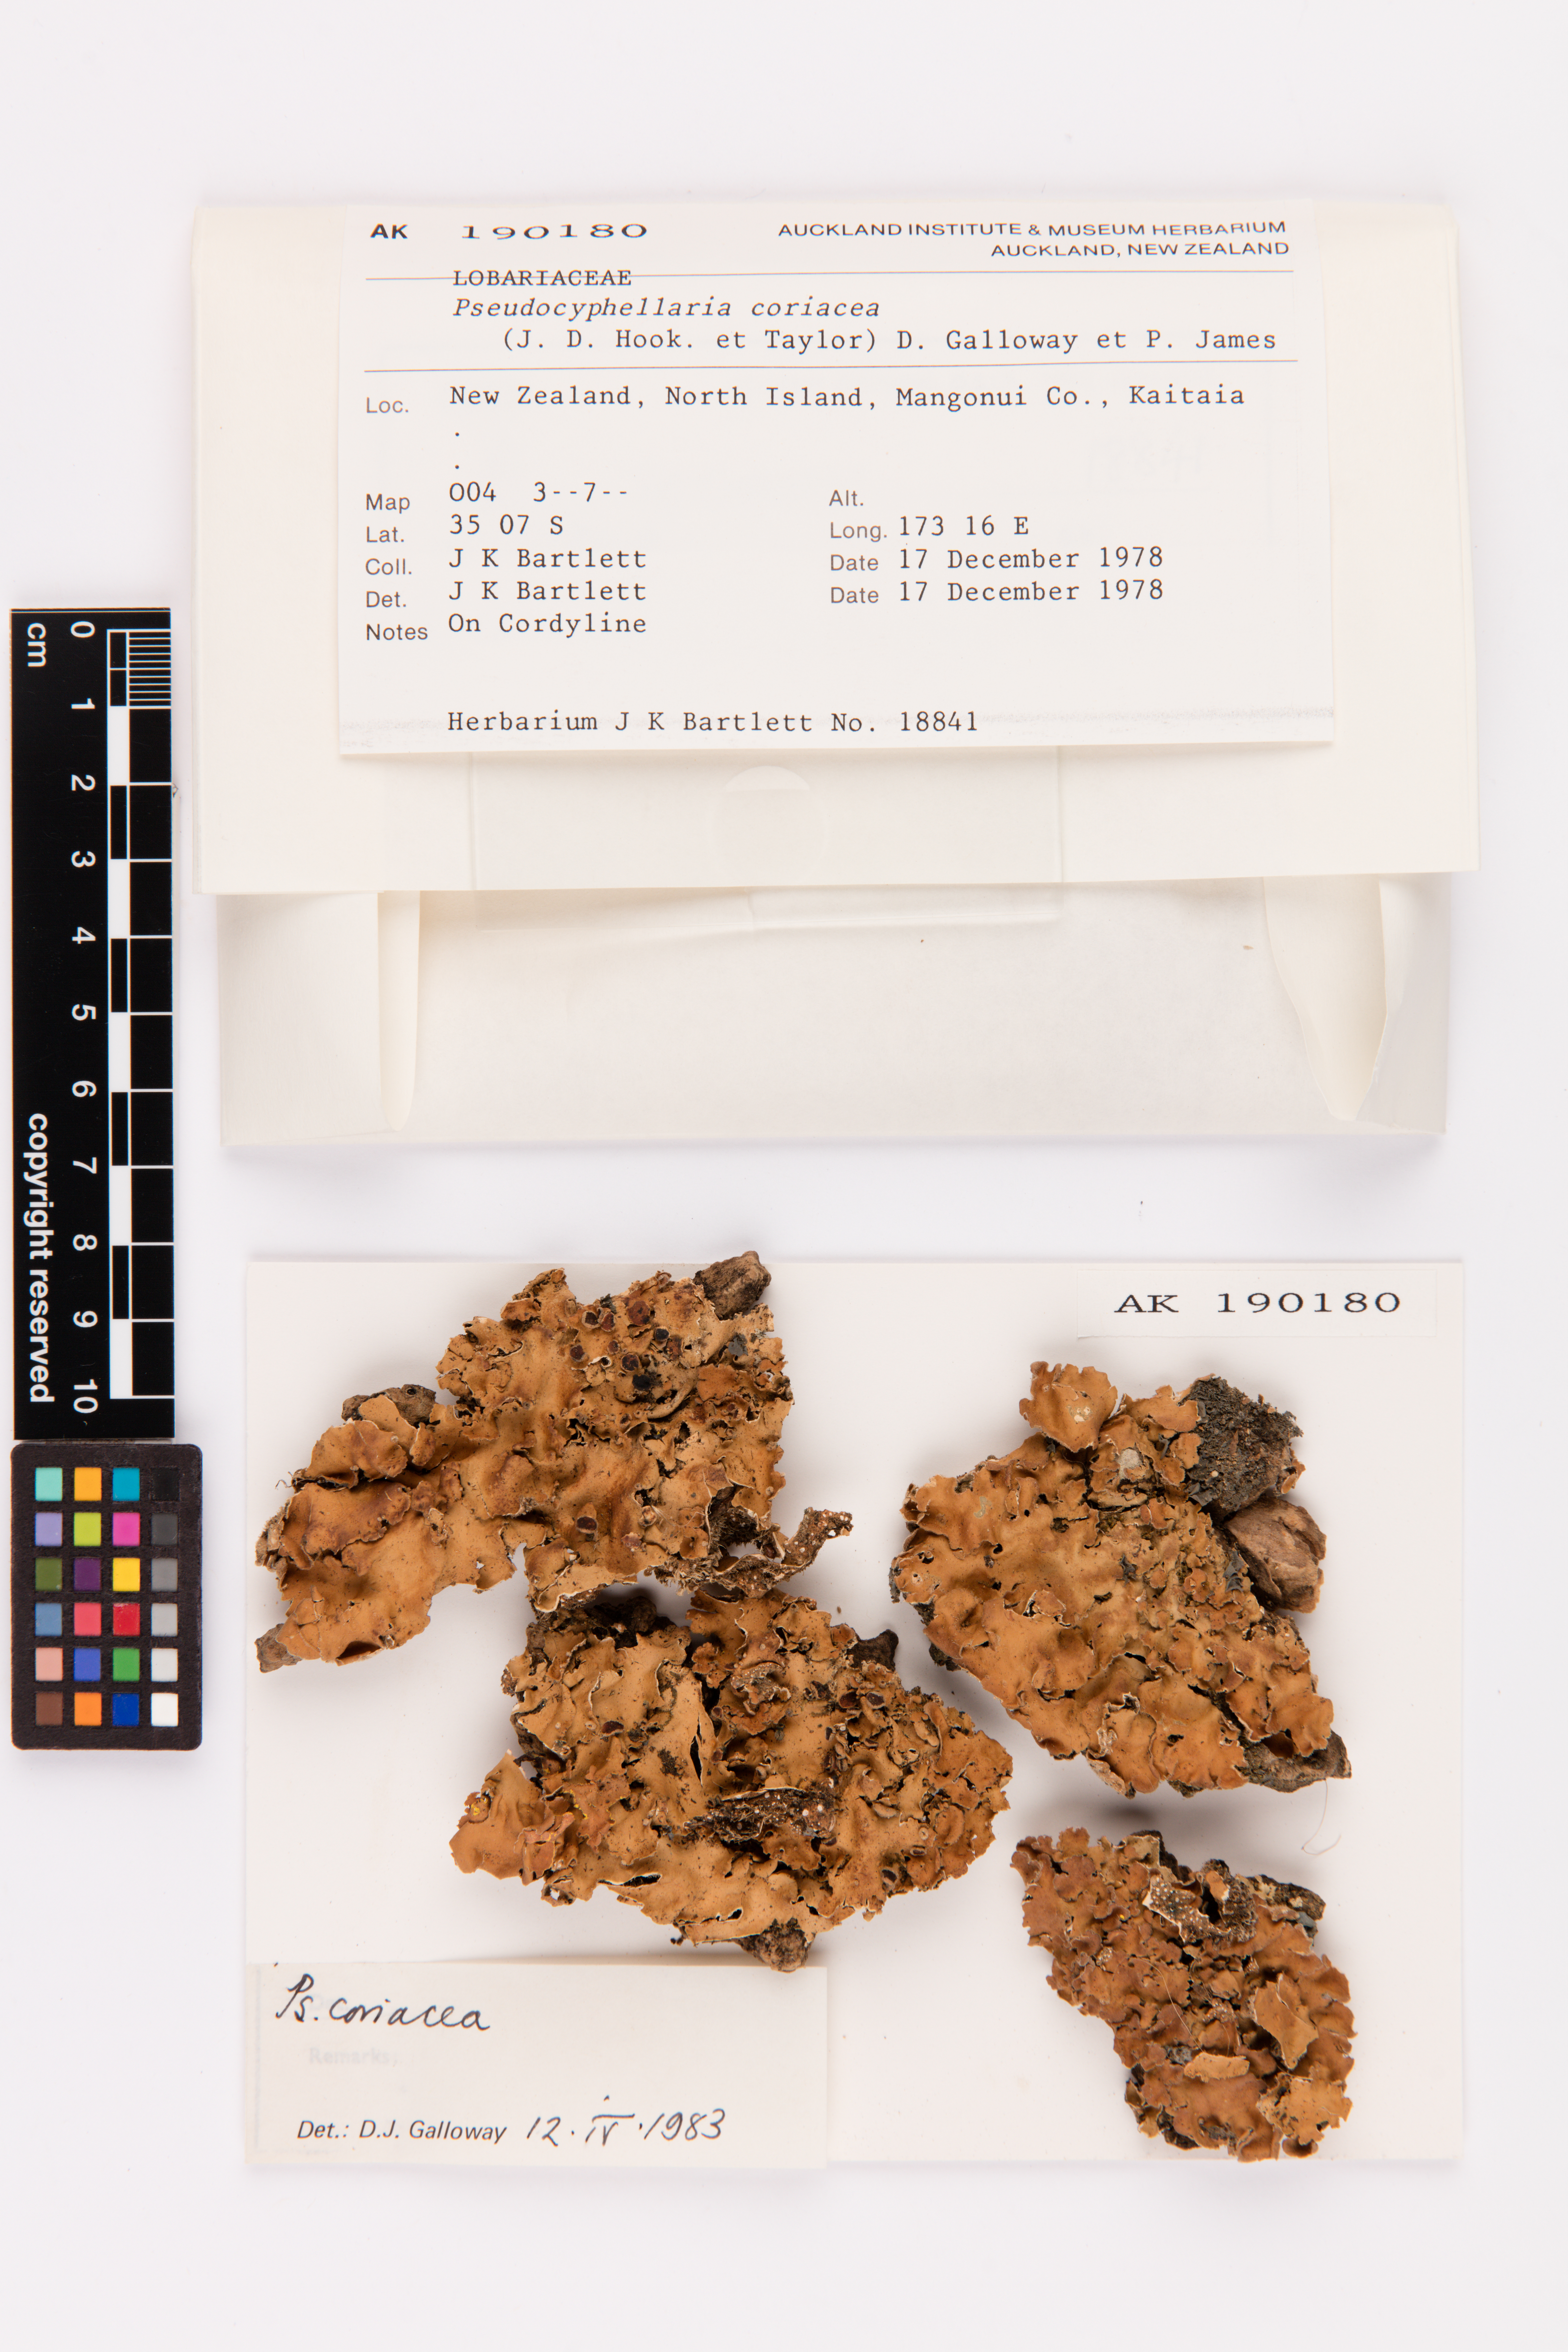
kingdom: Fungi
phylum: Ascomycota
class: Lecanoromycetes
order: Peltigerales
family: Lobariaceae
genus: Pseudocyphellaria
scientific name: Pseudocyphellaria coriacea
